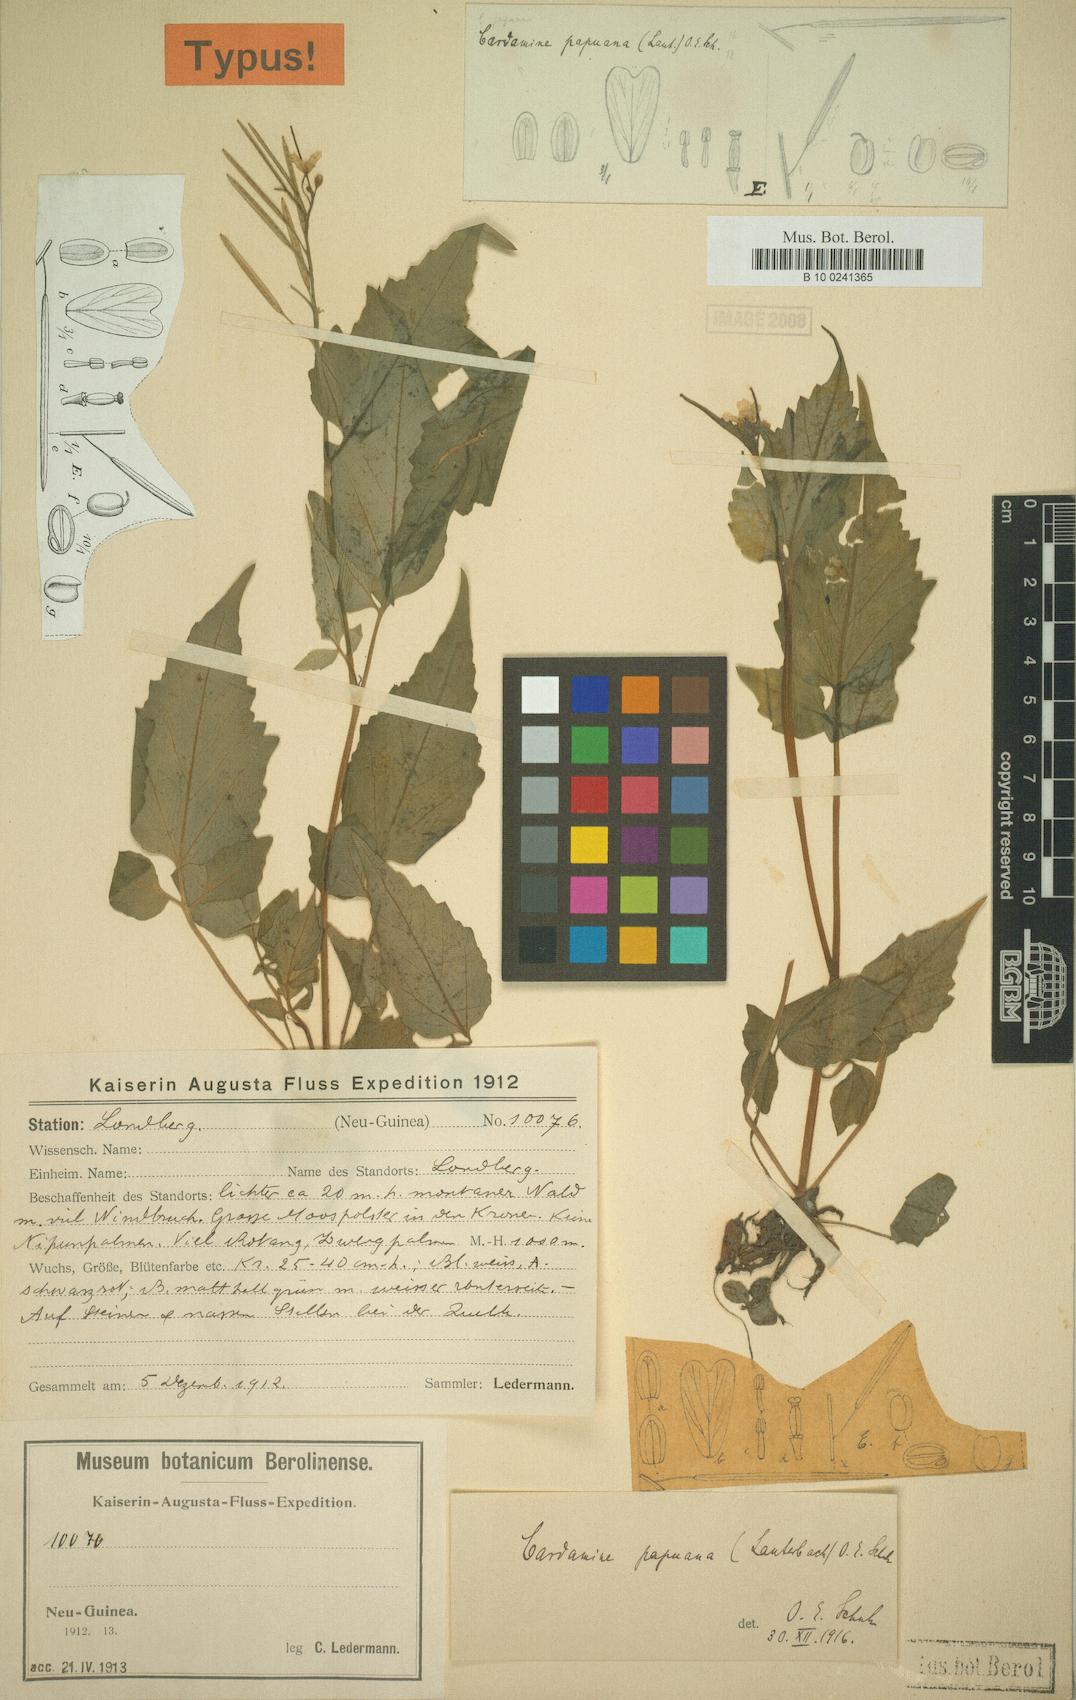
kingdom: Plantae
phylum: Tracheophyta
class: Magnoliopsida
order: Brassicales
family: Brassicaceae
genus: Cardamine
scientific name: Cardamine papuana
